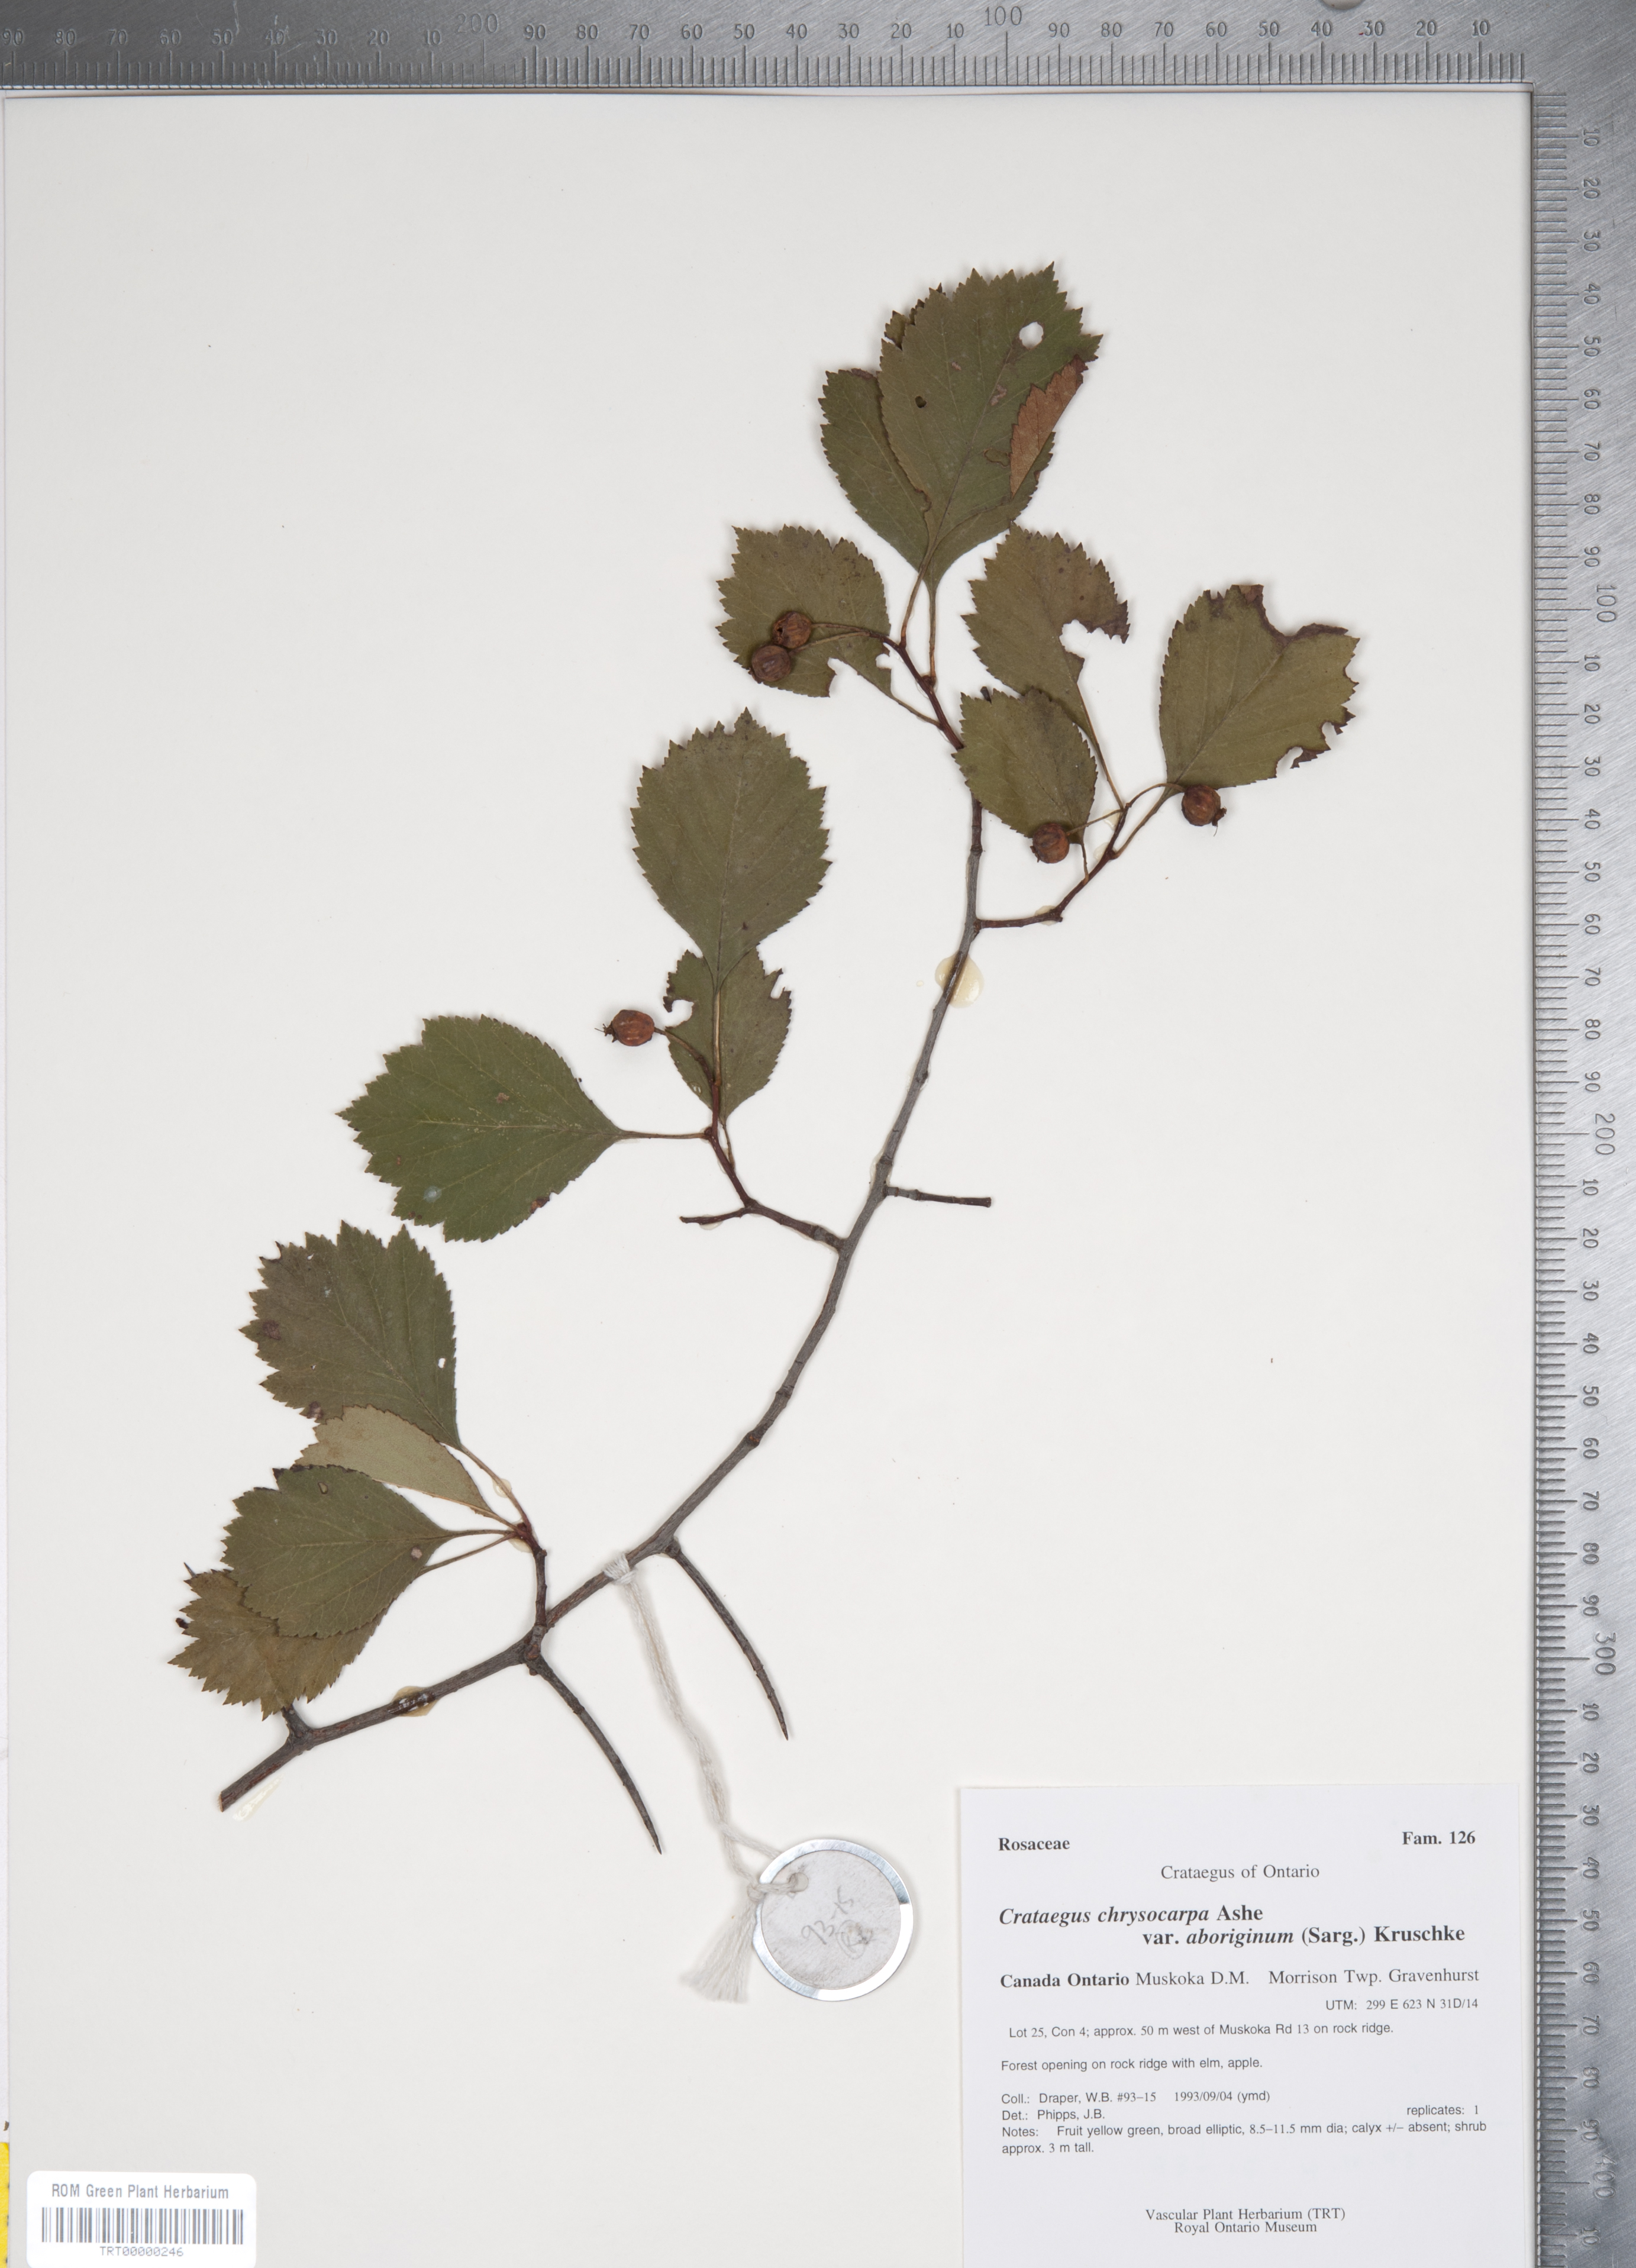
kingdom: Plantae
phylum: Tracheophyta
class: Magnoliopsida
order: Rosales
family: Rosaceae
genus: Crataegus
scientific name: Crataegus chrysocarpa
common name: Fire-berry hawthorn
